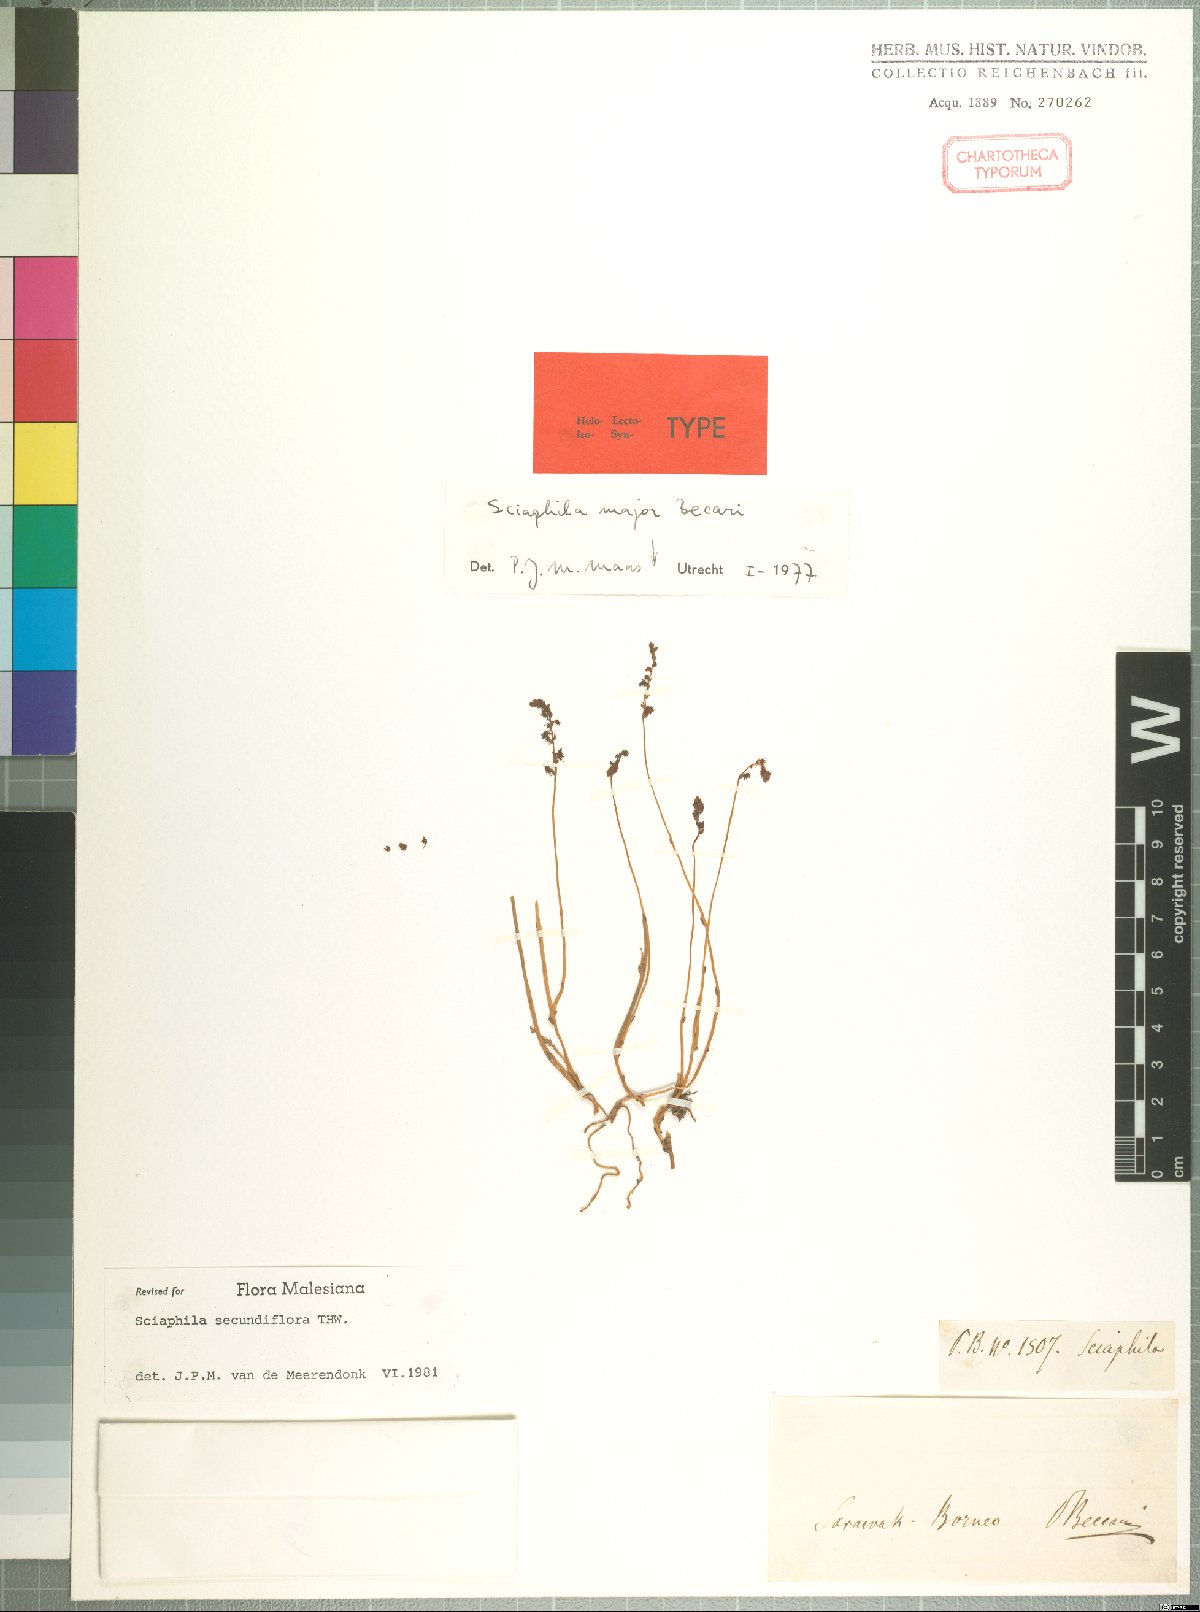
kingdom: Plantae
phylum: Tracheophyta
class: Liliopsida
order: Pandanales
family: Triuridaceae
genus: Sciaphila
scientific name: Sciaphila secundiflora
